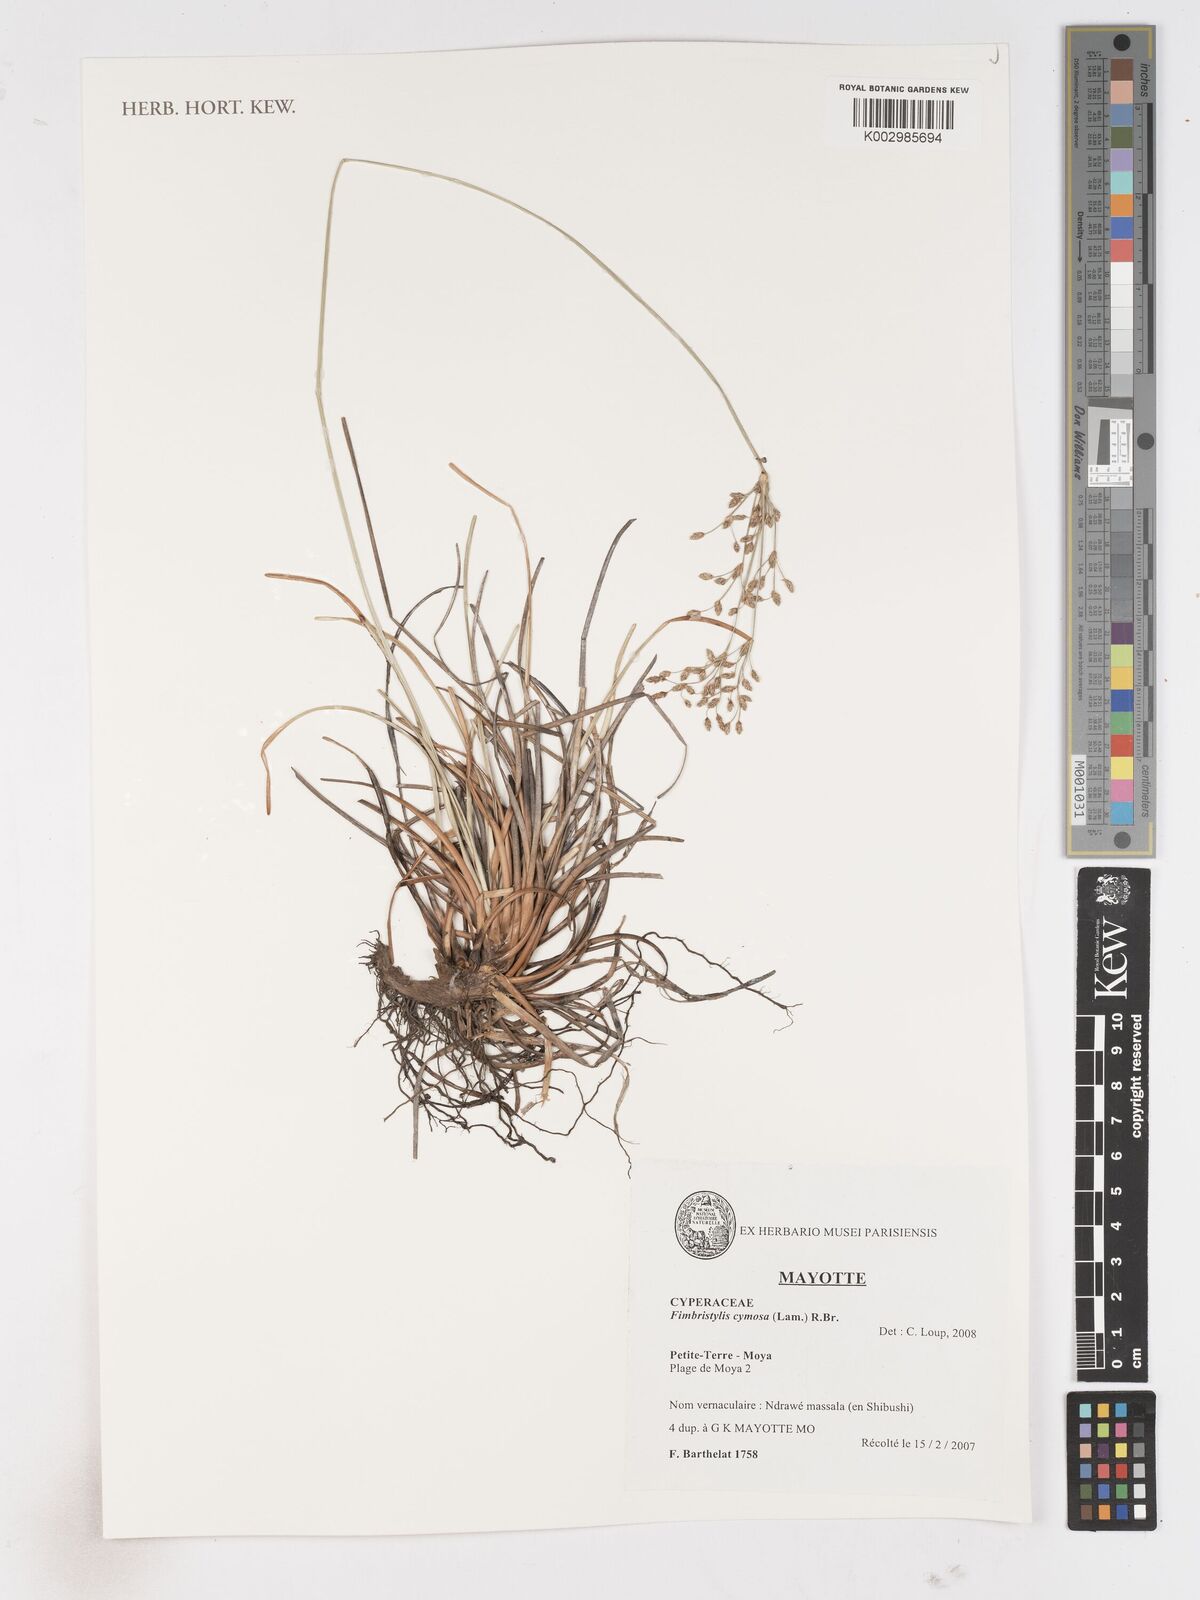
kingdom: Plantae
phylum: Tracheophyta
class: Liliopsida
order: Poales
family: Cyperaceae
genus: Fimbristylis
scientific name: Fimbristylis cymosa
